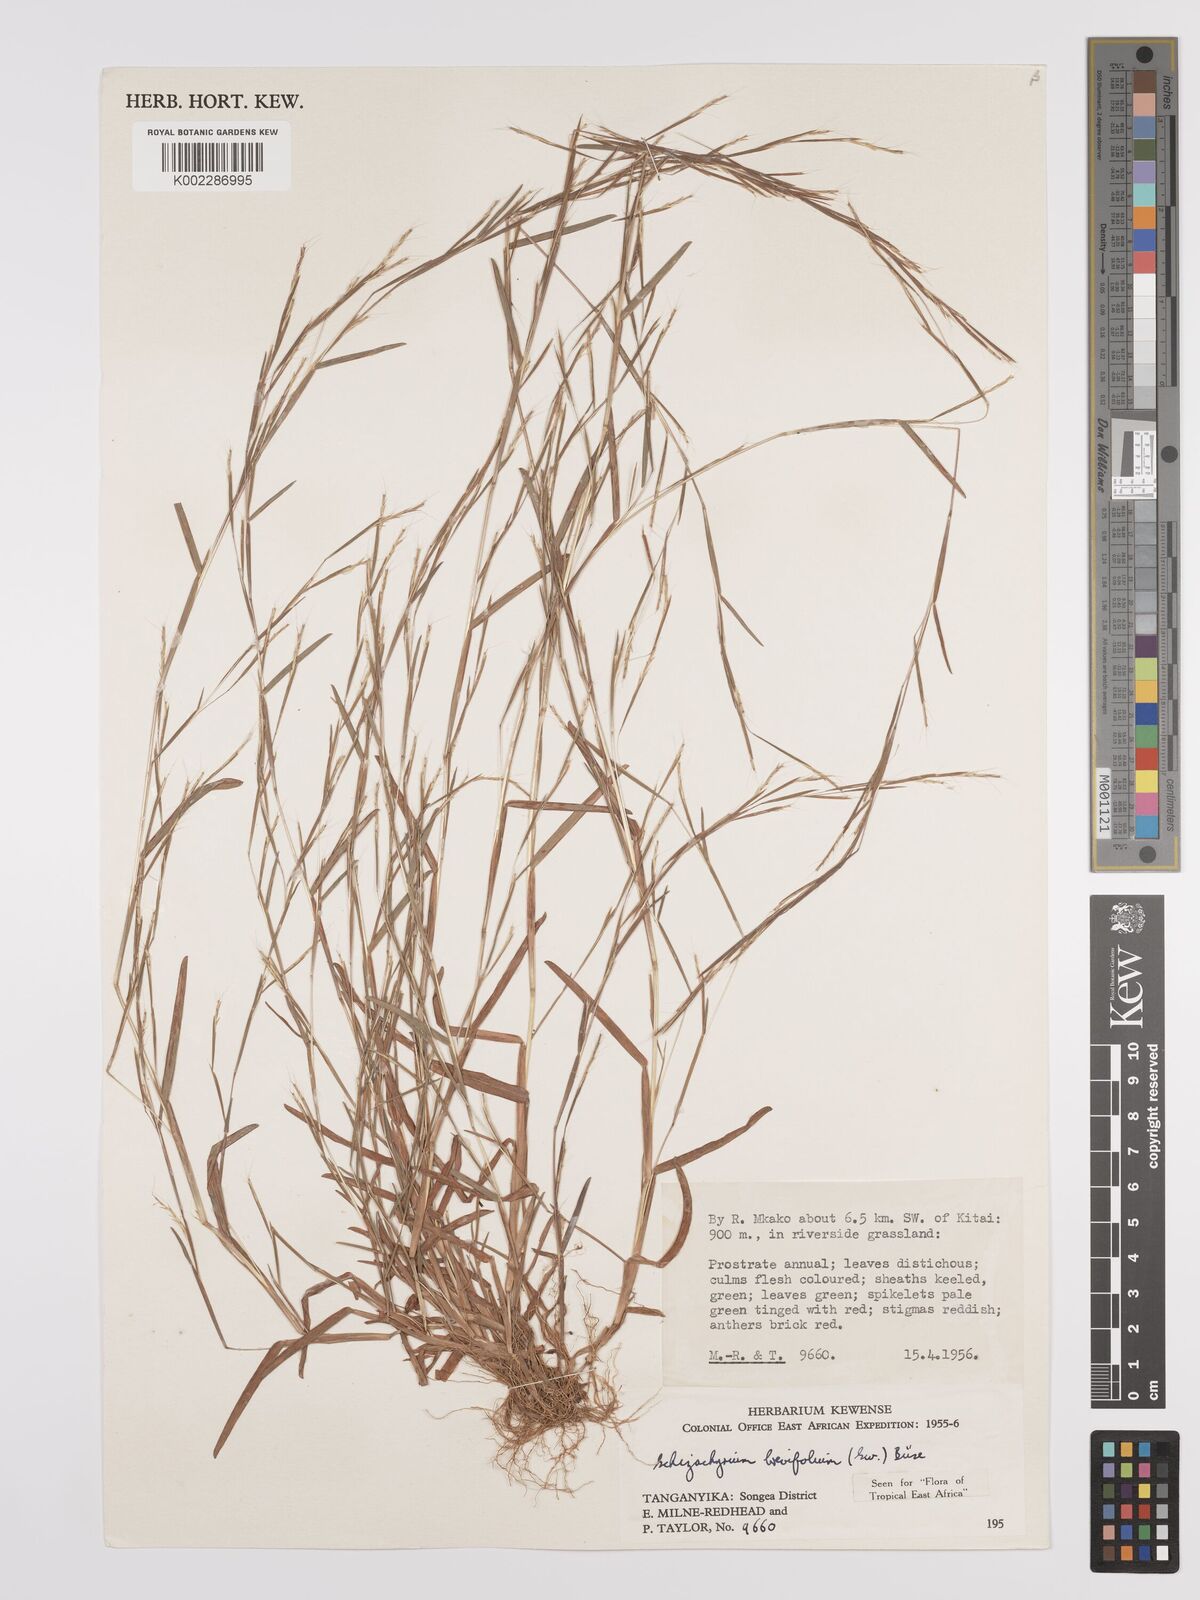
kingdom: Plantae
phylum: Tracheophyta
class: Liliopsida
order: Poales
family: Poaceae
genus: Schizachyrium
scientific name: Schizachyrium brevifolium
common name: Serillo dulce
